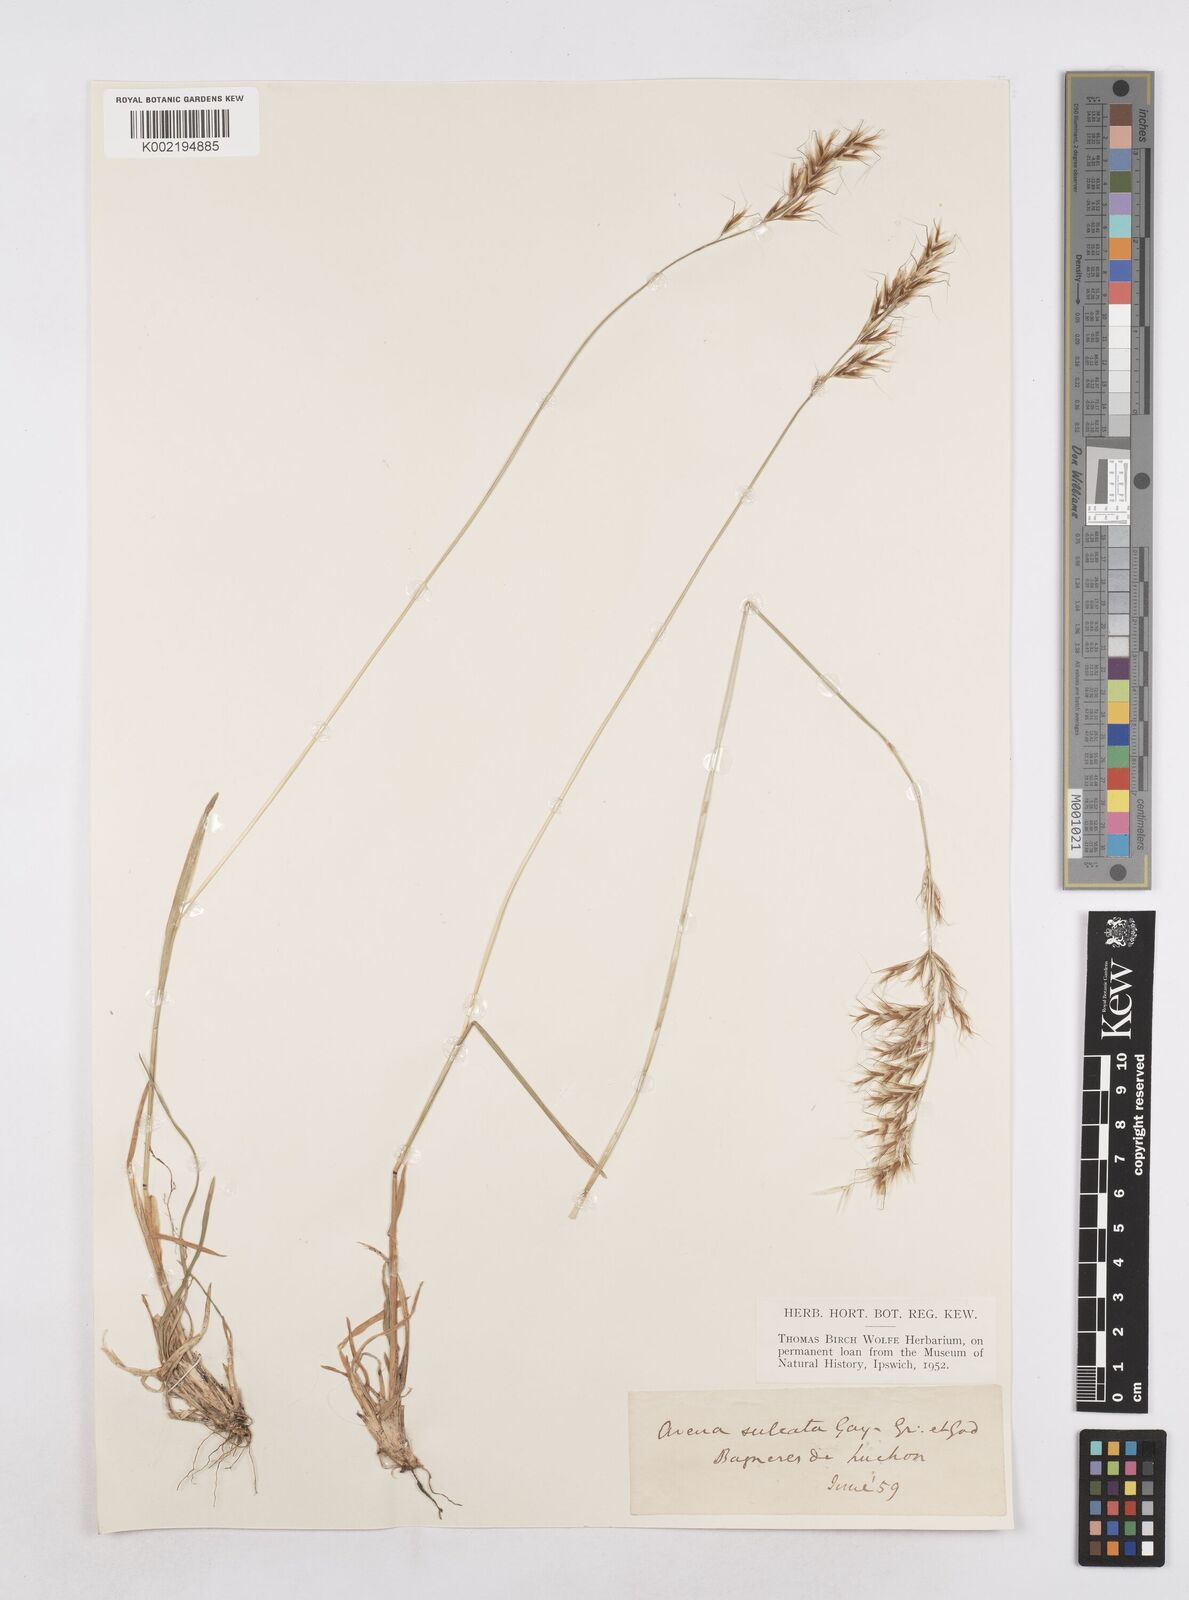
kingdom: Plantae
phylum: Tracheophyta
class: Liliopsida
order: Poales
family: Poaceae
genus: Helictotrichon
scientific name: Helictotrichon
